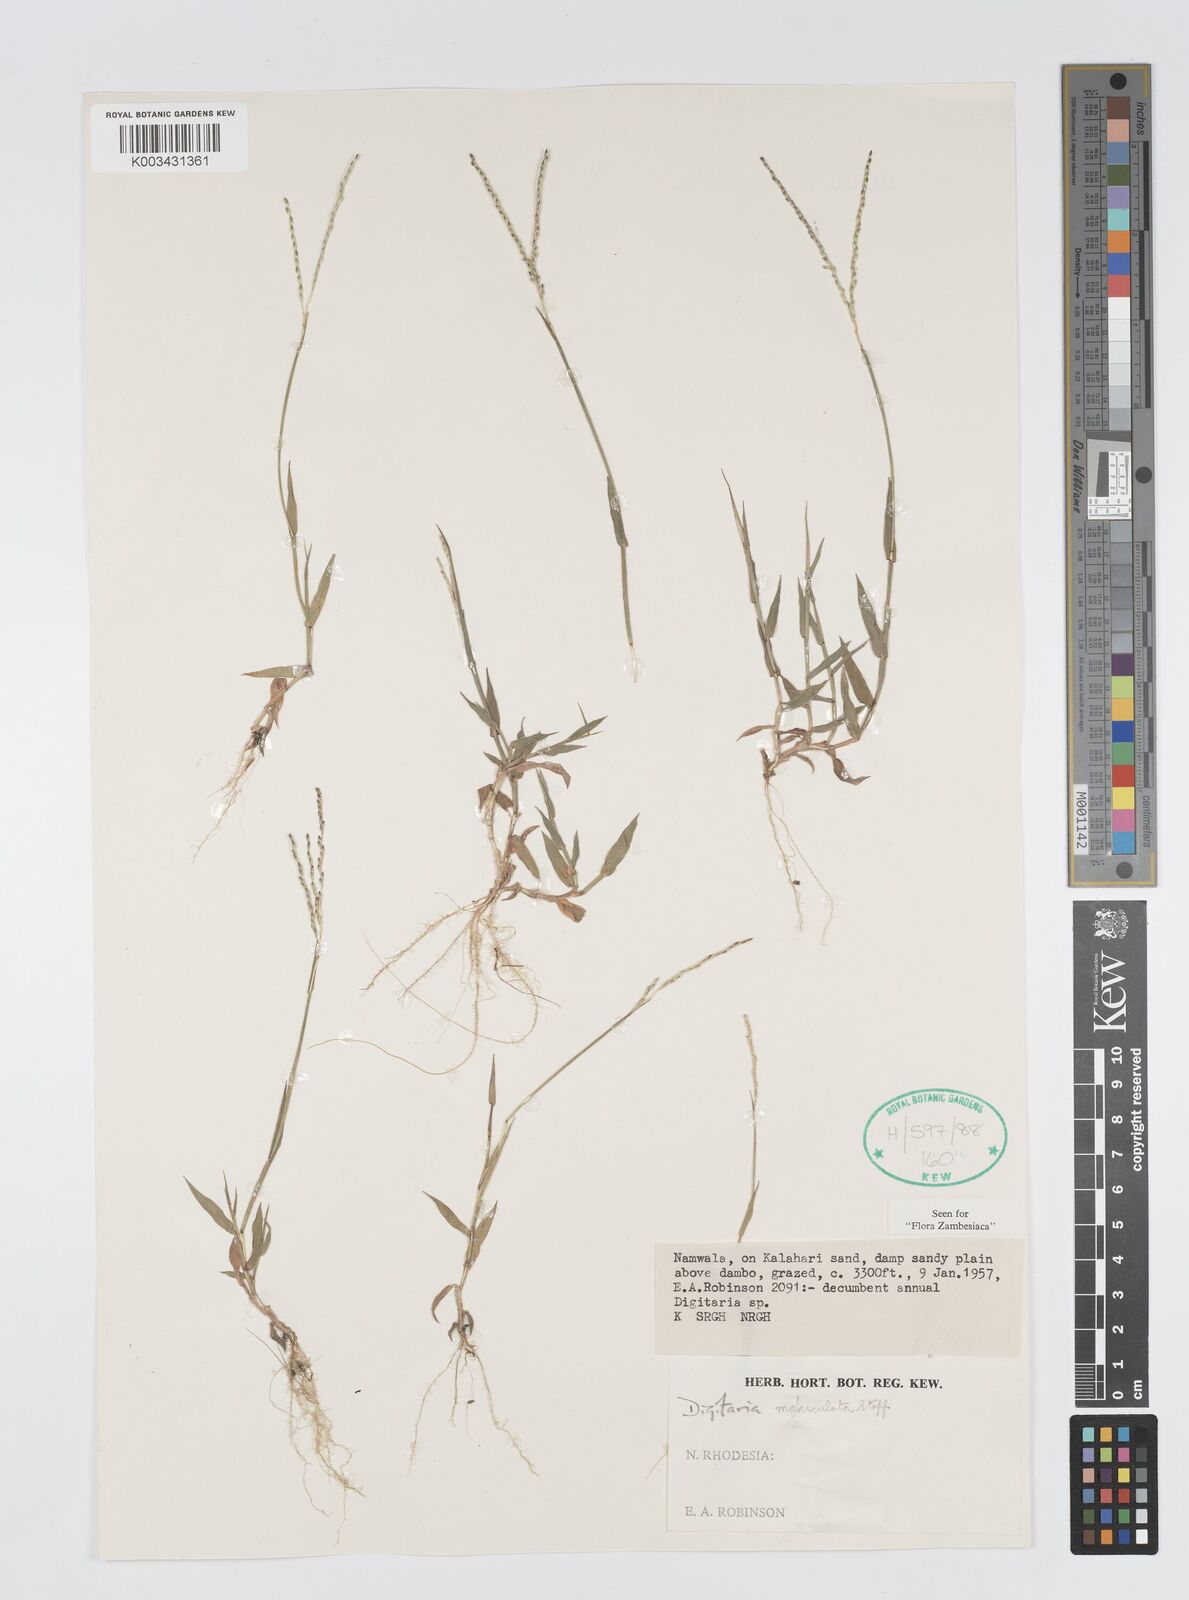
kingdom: Plantae
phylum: Tracheophyta
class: Liliopsida
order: Poales
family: Poaceae
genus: Digitaria
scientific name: Digitaria maniculata
